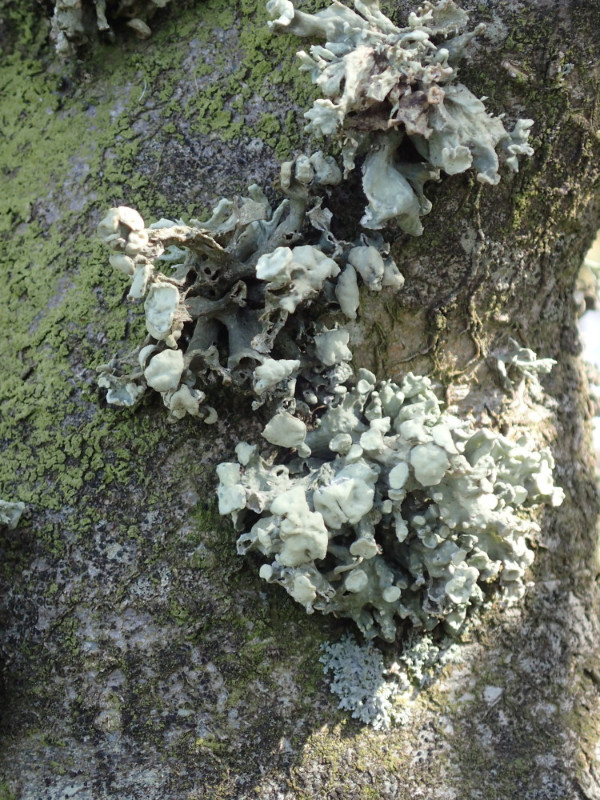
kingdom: Fungi
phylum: Ascomycota
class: Lecanoromycetes
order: Lecanorales
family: Ramalinaceae
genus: Ramalina
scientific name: Ramalina fastigiata
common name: tue-grenlav
